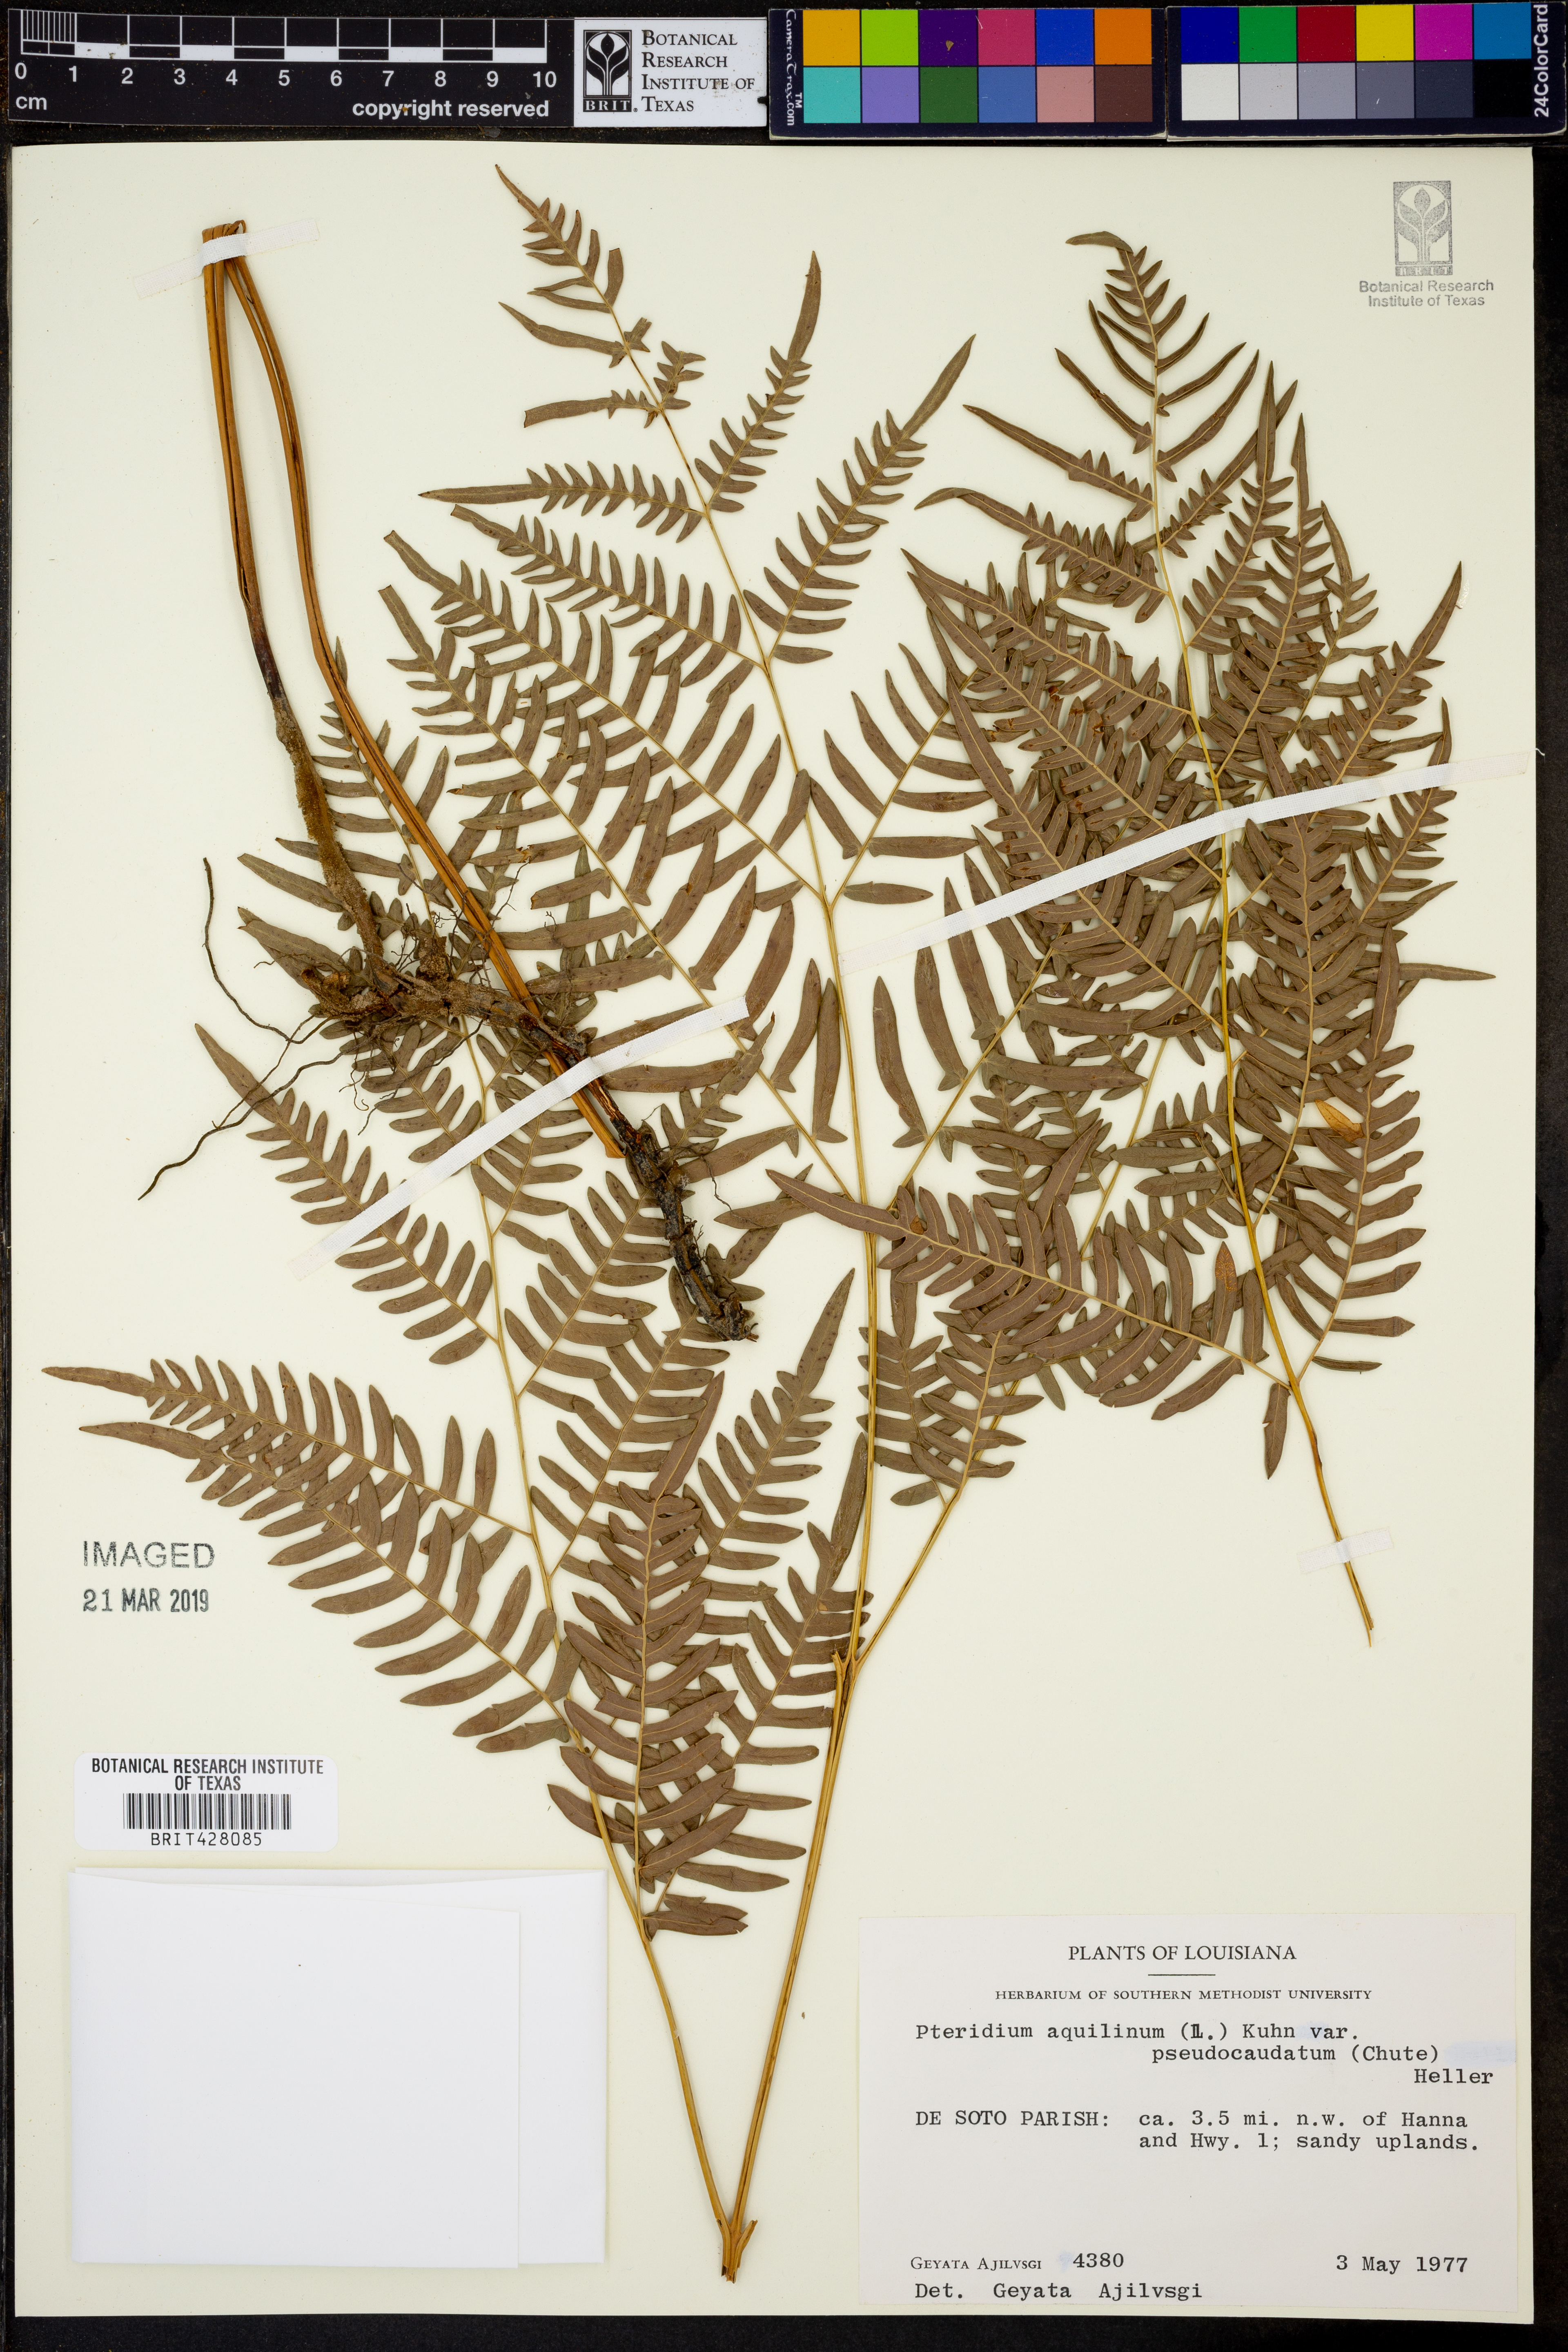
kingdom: Plantae
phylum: Tracheophyta
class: Polypodiopsida
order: Polypodiales
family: Dennstaedtiaceae
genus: Pteridium
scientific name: Pteridium aquilinum
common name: Bracken
